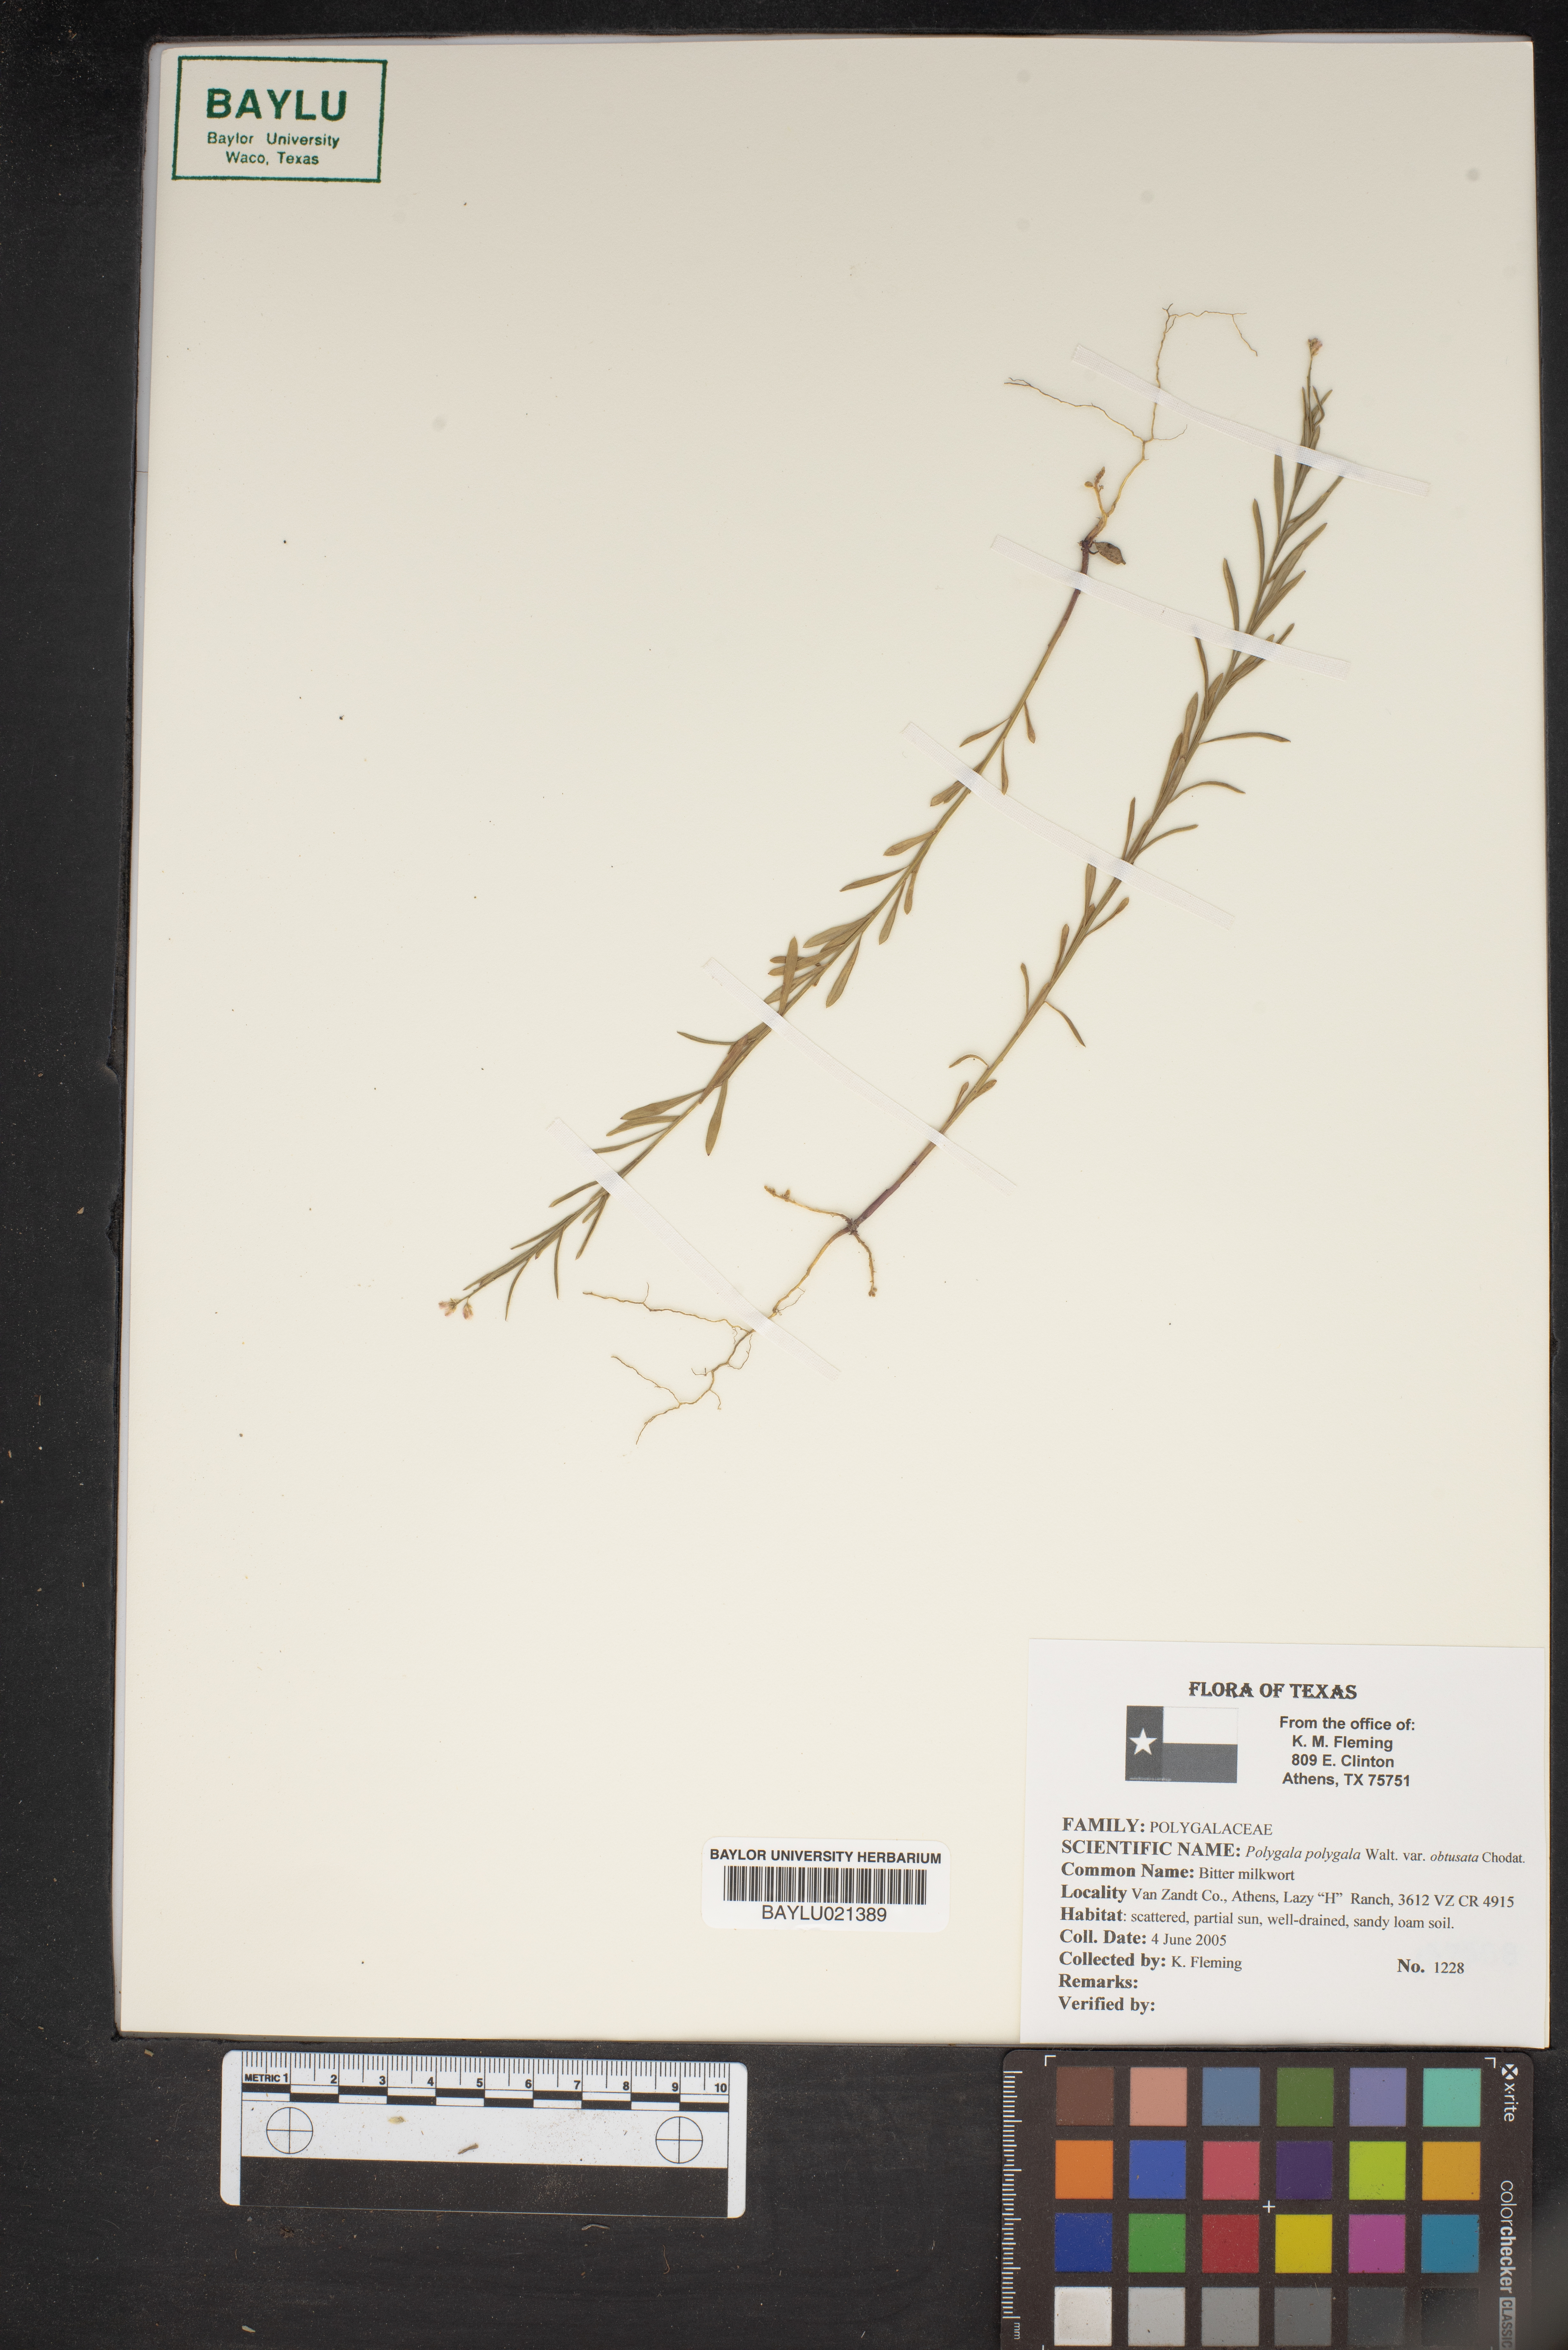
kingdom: Plantae
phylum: Tracheophyta
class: Magnoliopsida
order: Fabales
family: Polygalaceae
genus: Polygala
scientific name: Polygala polygama
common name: Bitter milkwort
